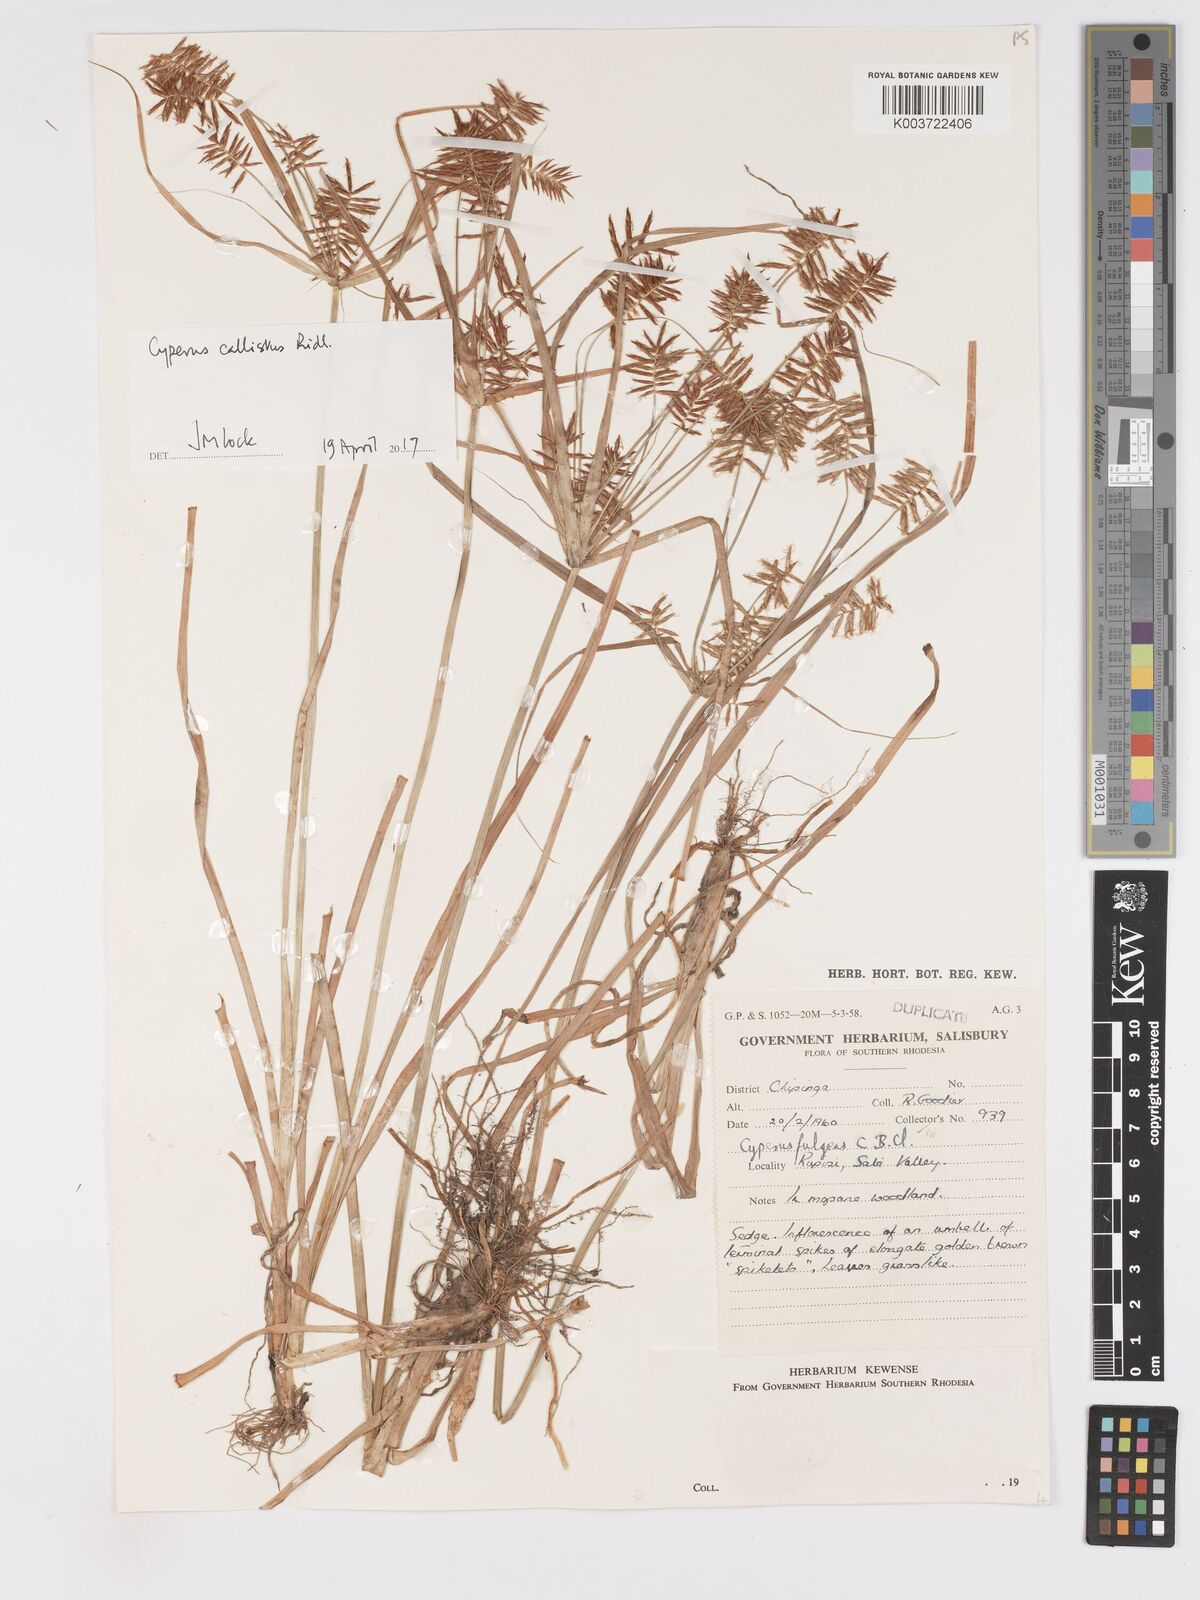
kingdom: Plantae
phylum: Tracheophyta
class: Liliopsida
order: Poales
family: Cyperaceae
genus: Cyperus
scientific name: Cyperus callistus
